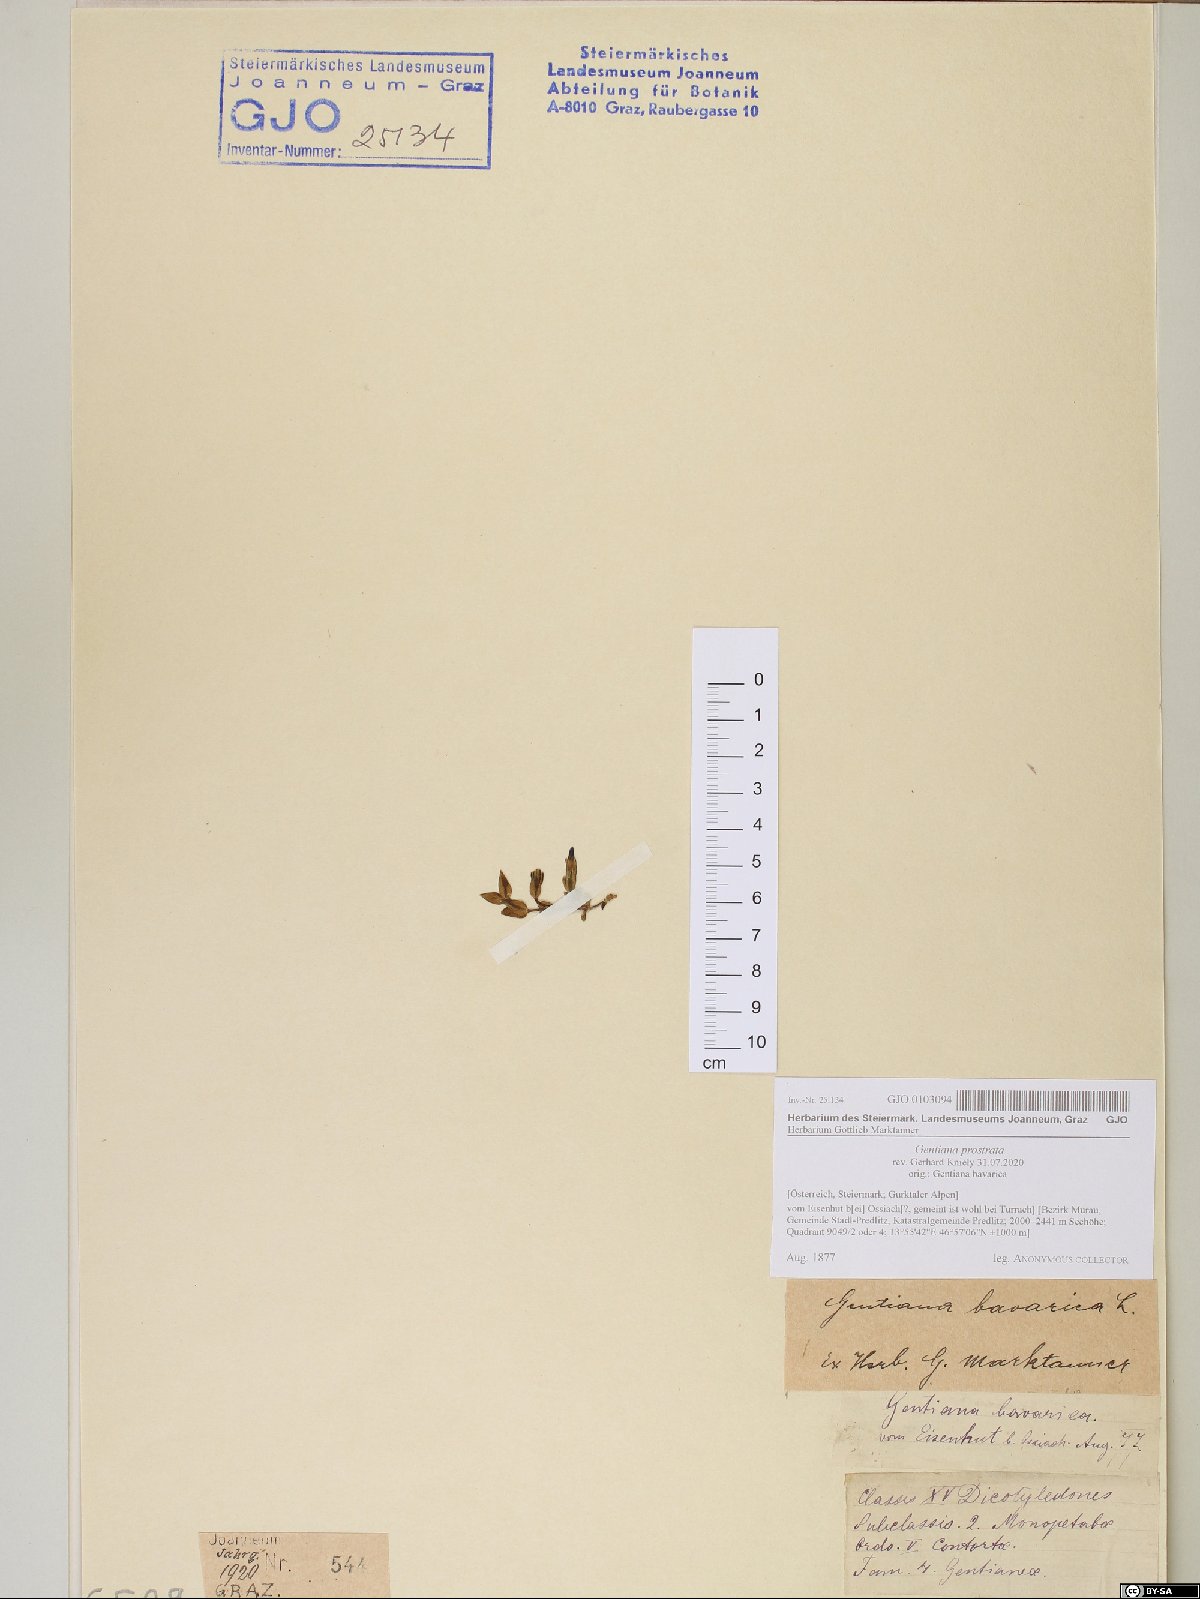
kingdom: Plantae
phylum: Tracheophyta
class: Magnoliopsida
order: Gentianales
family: Gentianaceae
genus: Gentiana
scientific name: Gentiana prostrata
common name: Moss gentian
